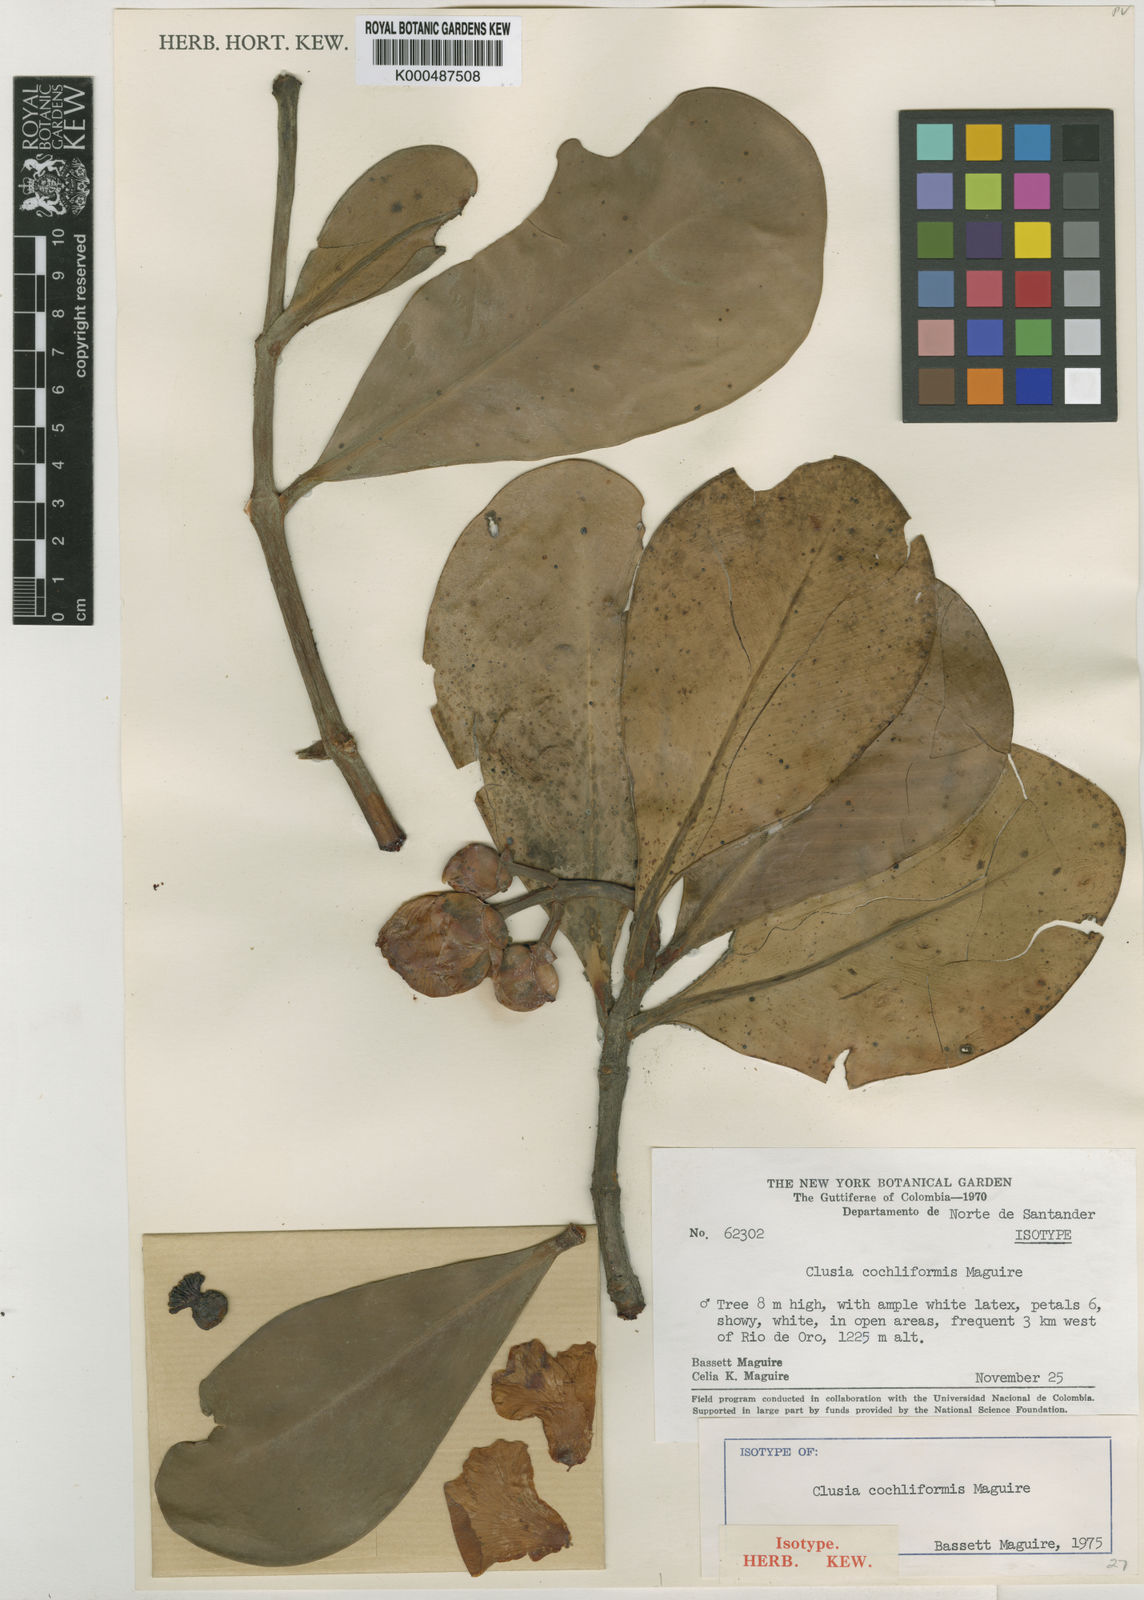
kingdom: Plantae
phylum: Tracheophyta
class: Magnoliopsida
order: Malpighiales
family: Clusiaceae
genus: Clusia
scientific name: Clusia cochliformis
